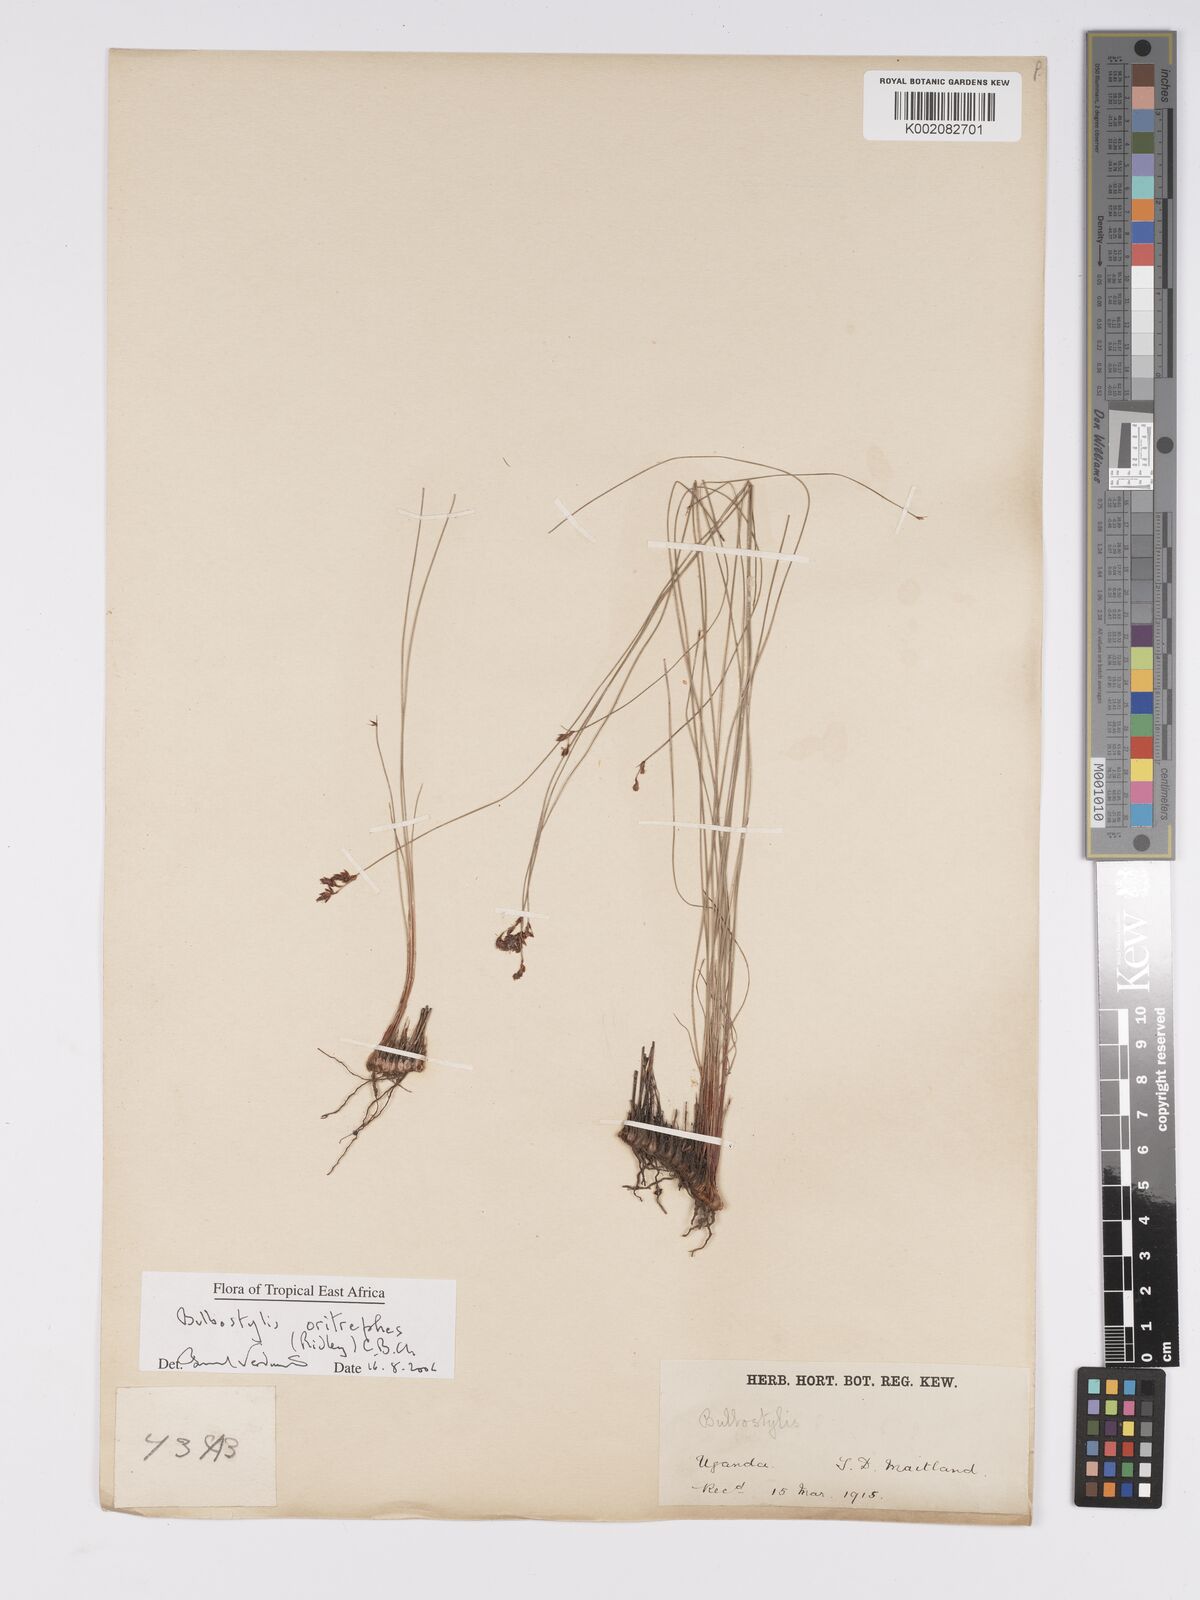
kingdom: Plantae
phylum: Tracheophyta
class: Liliopsida
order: Poales
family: Cyperaceae
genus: Bulbostylis
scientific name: Bulbostylis oritrephes
